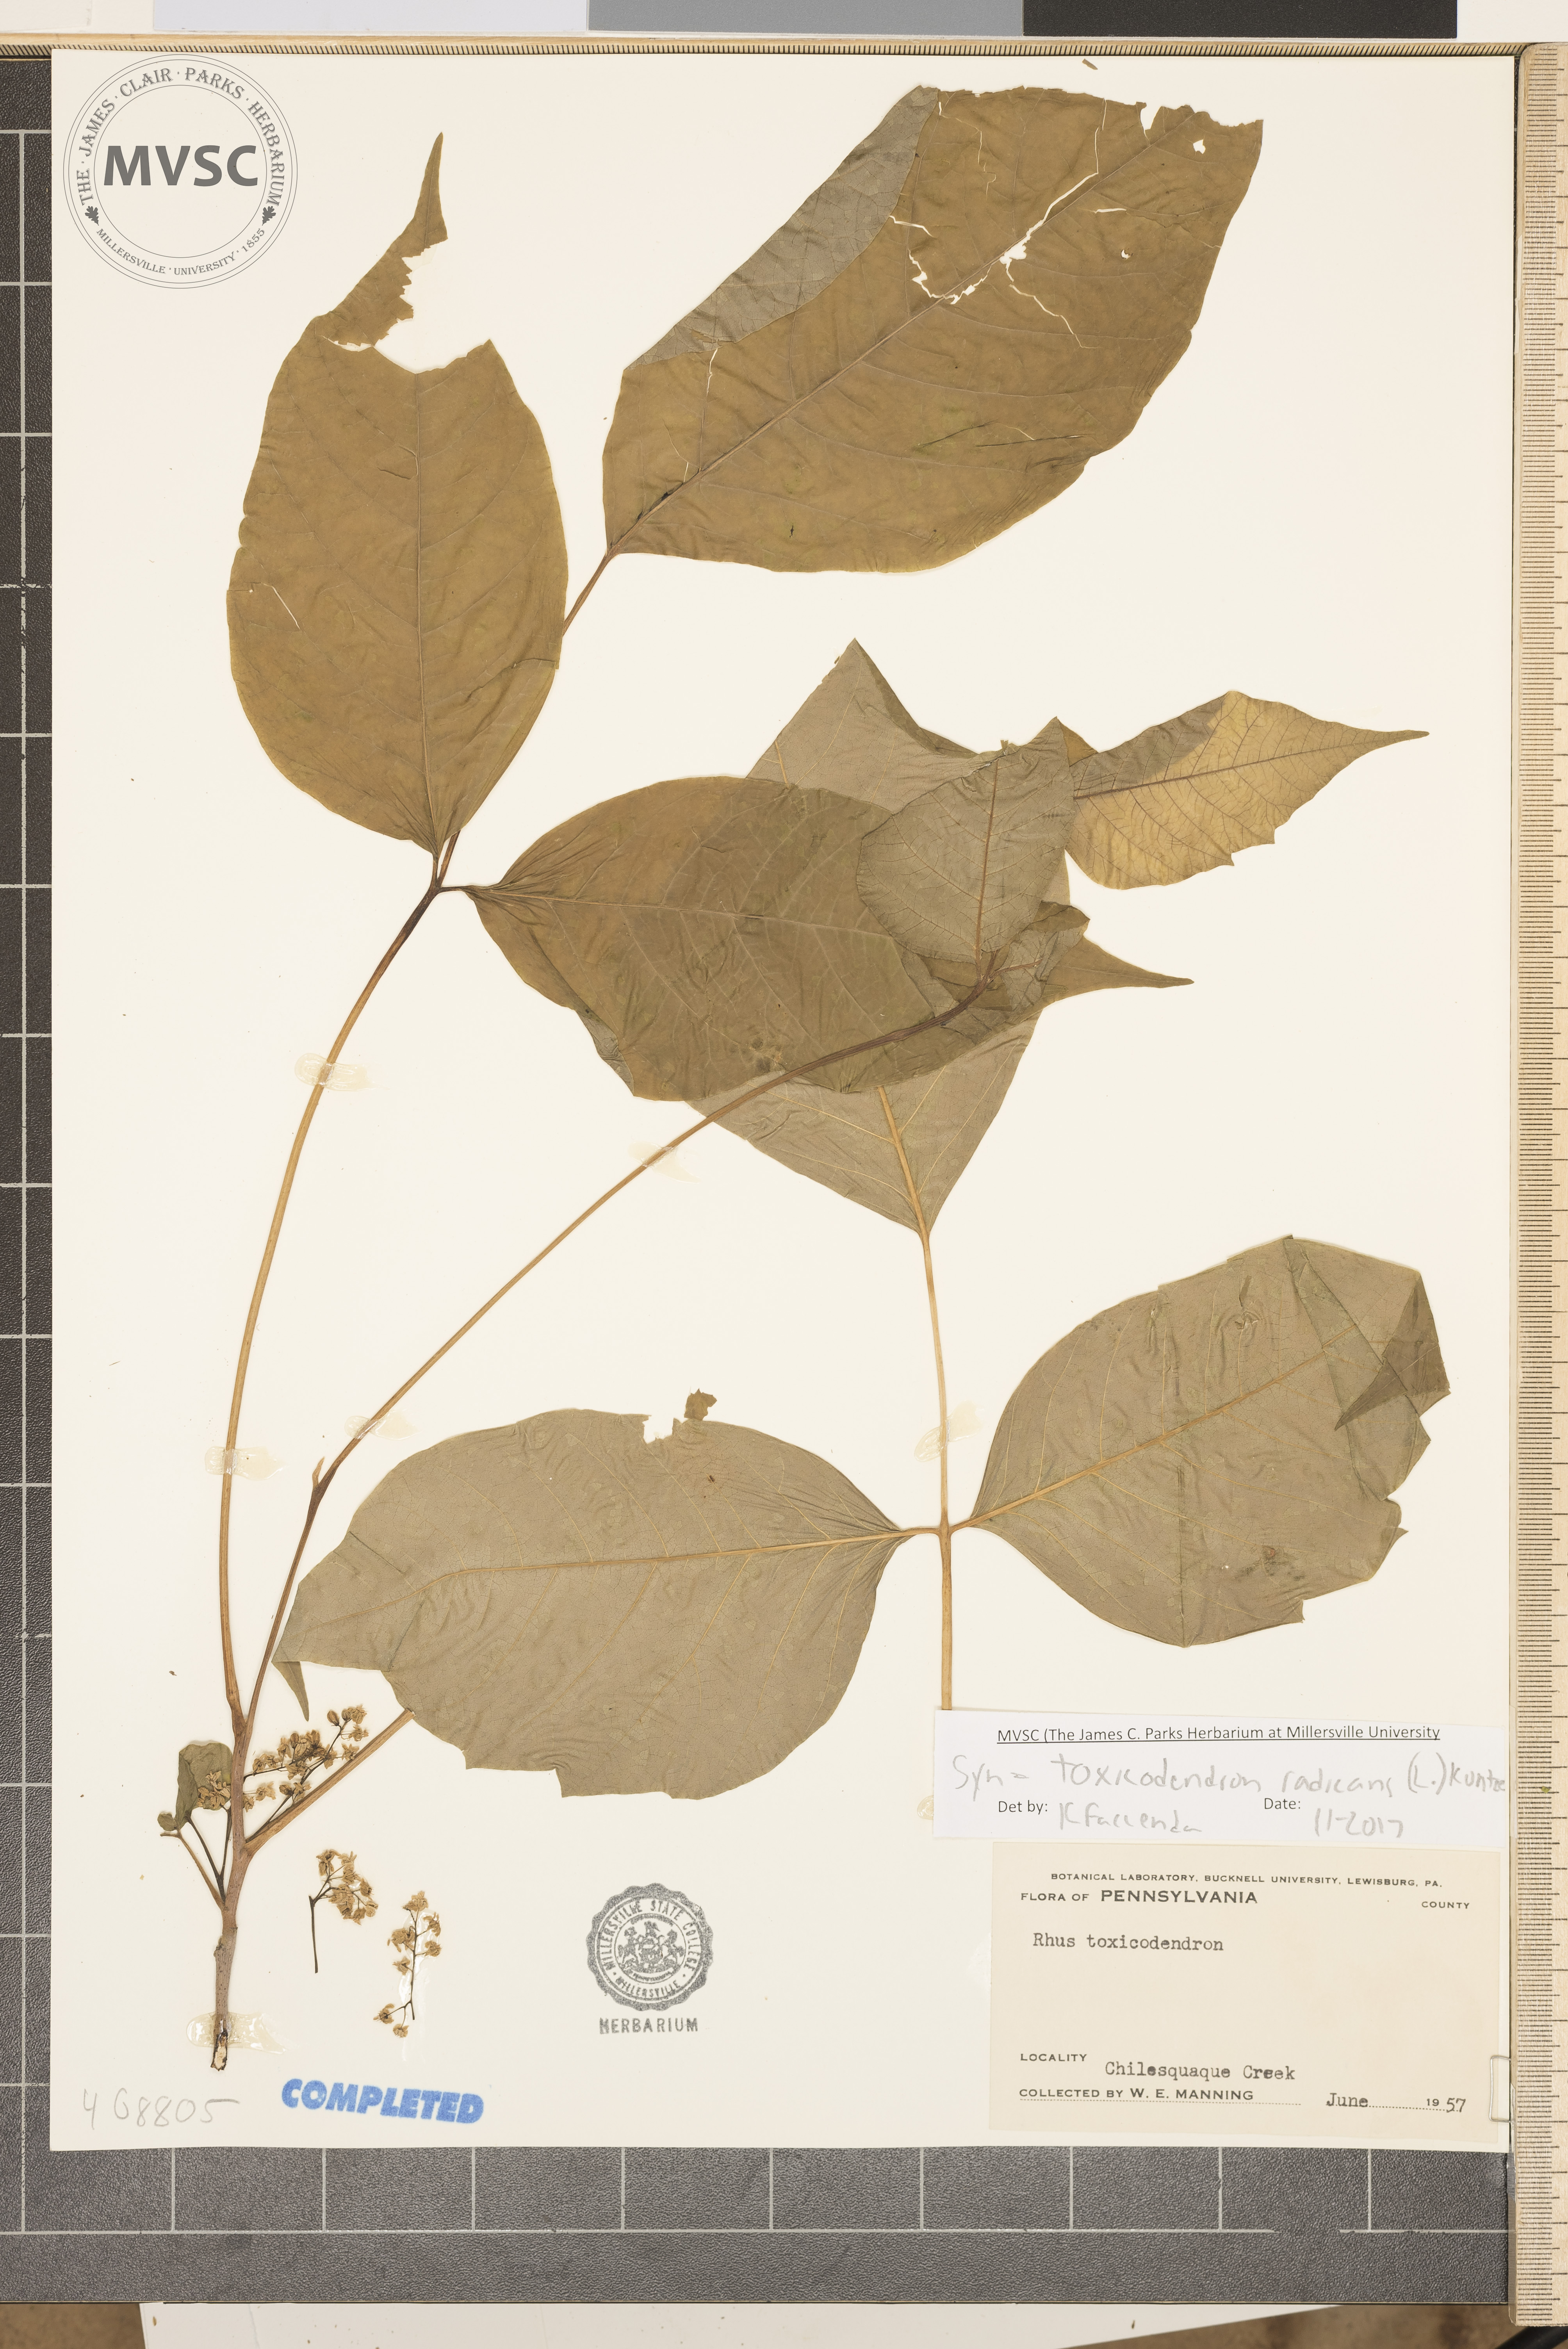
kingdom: Plantae
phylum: Tracheophyta
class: Magnoliopsida
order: Sapindales
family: Anacardiaceae
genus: Toxicodendron
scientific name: Toxicodendron radicans
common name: Poison ivy
